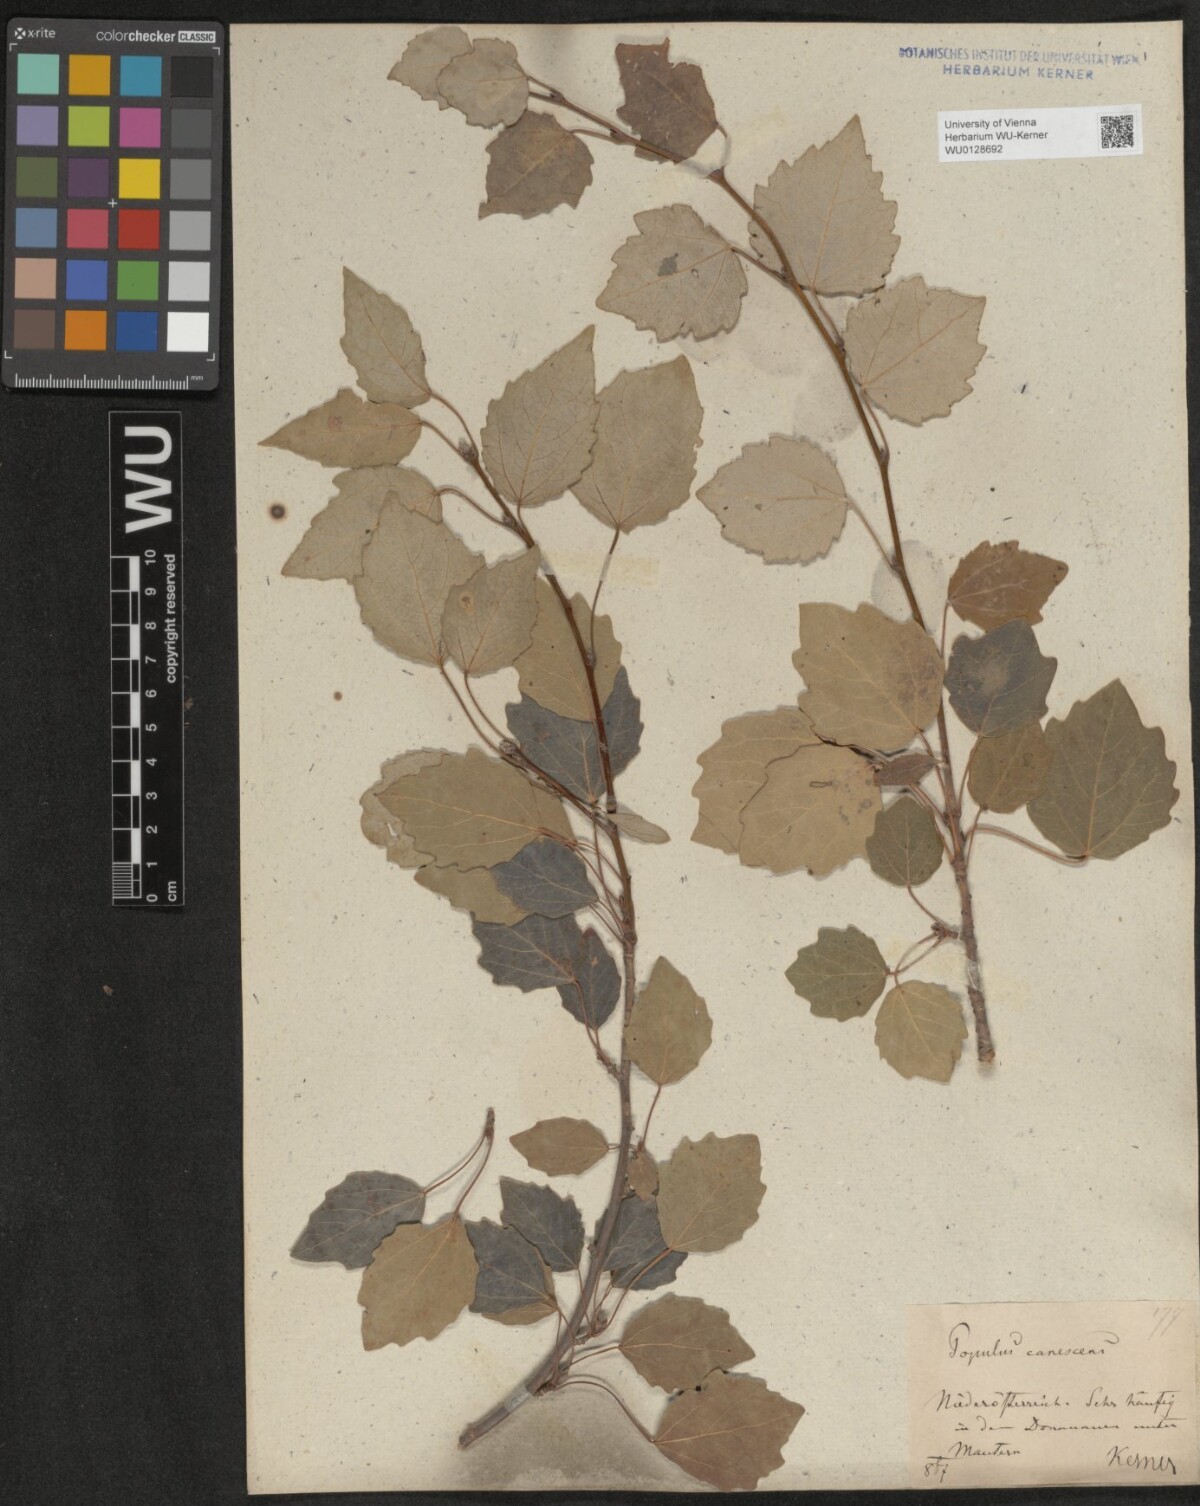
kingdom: Plantae
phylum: Tracheophyta
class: Magnoliopsida
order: Malpighiales
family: Salicaceae
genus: Populus
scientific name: Populus canescens
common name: Gray poplar
